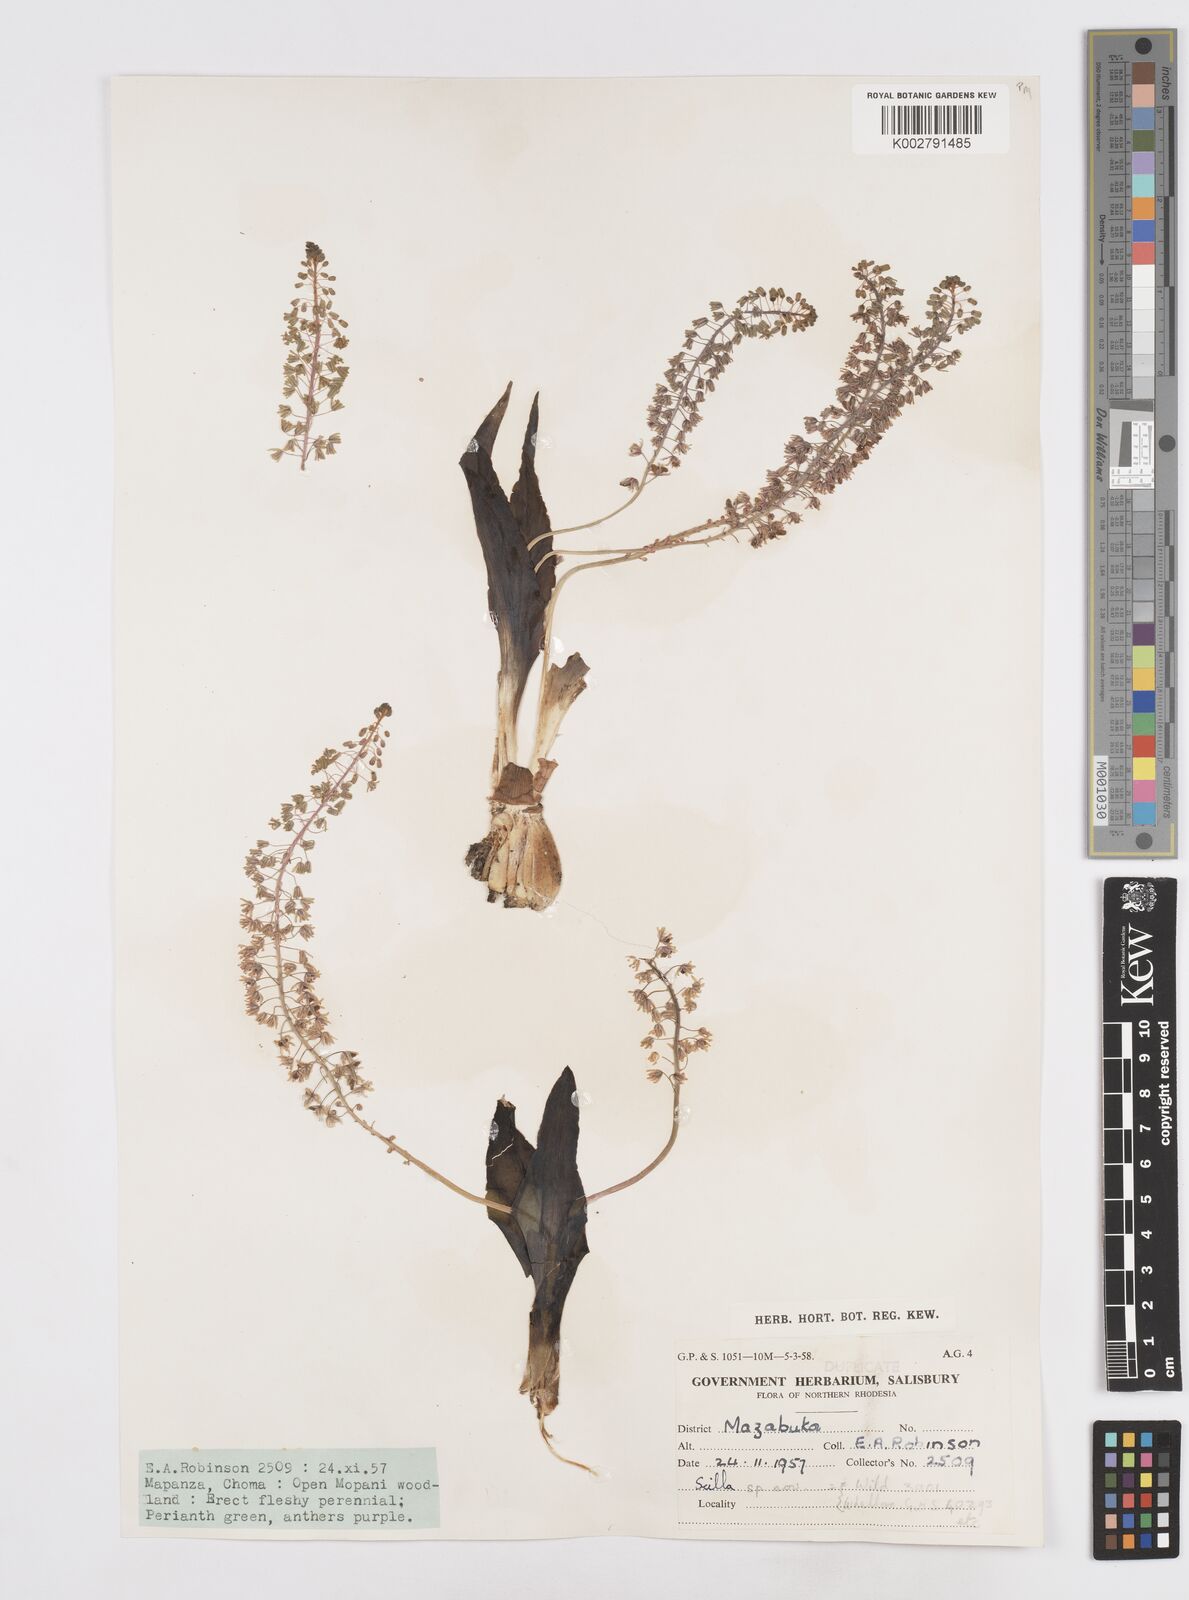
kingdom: Plantae
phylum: Tracheophyta
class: Liliopsida
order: Asparagales
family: Asparagaceae
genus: Scilla
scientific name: Scilla
